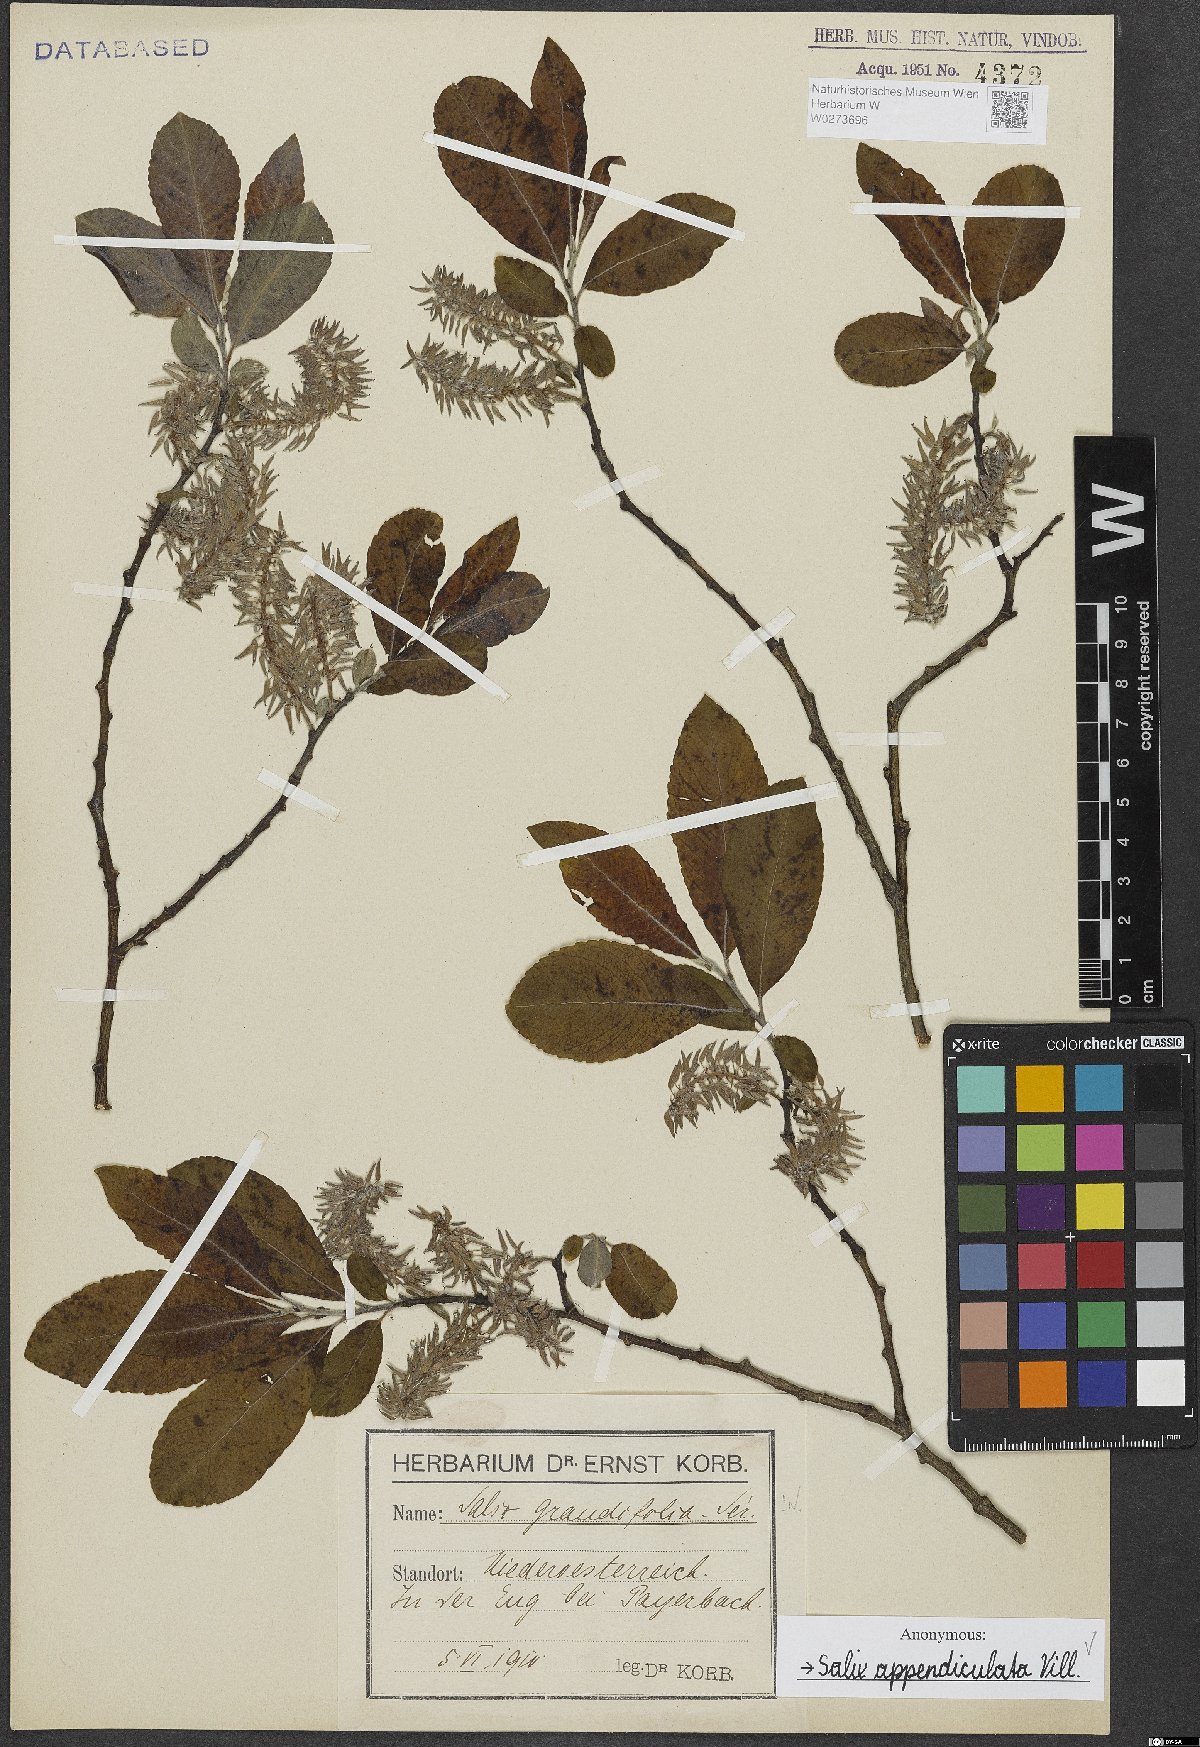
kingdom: Plantae
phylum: Tracheophyta
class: Magnoliopsida
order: Malpighiales
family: Salicaceae
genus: Salix
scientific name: Salix appendiculata
